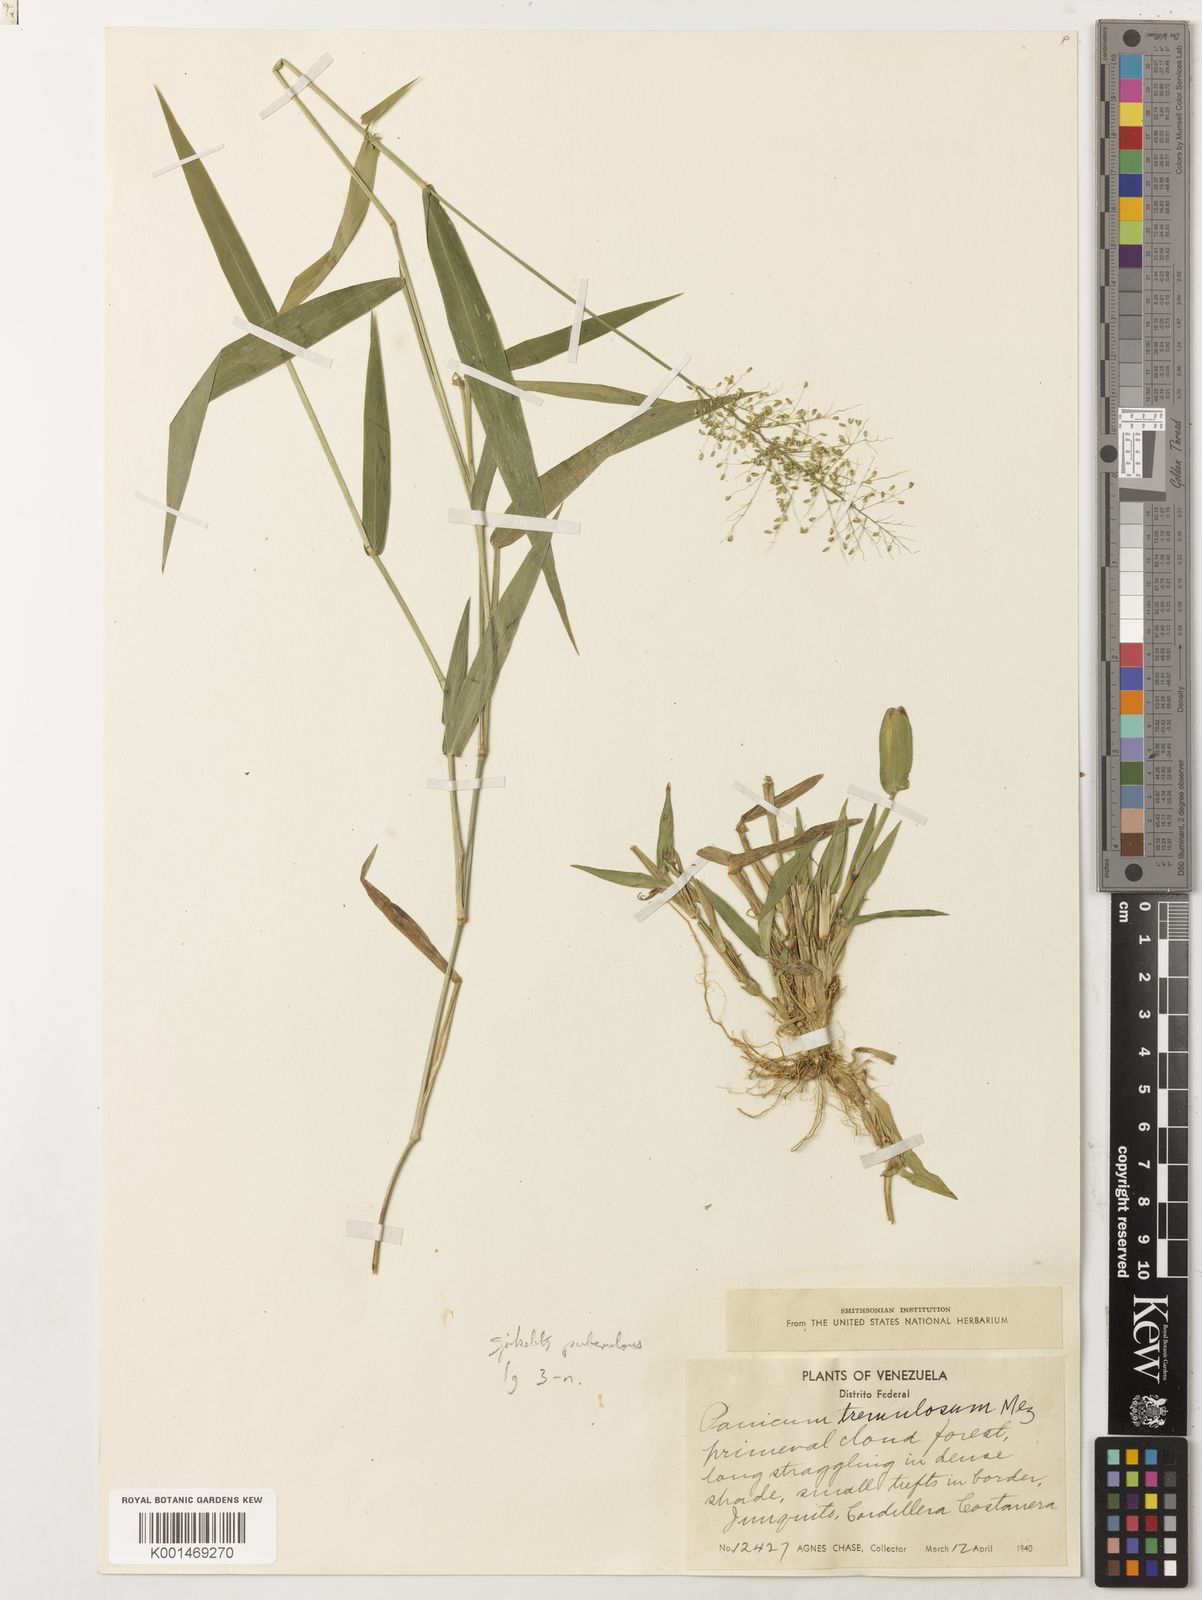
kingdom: Plantae
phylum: Tracheophyta
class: Liliopsida
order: Poales
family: Poaceae
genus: Dichanthelium
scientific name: Dichanthelium viscidellum
